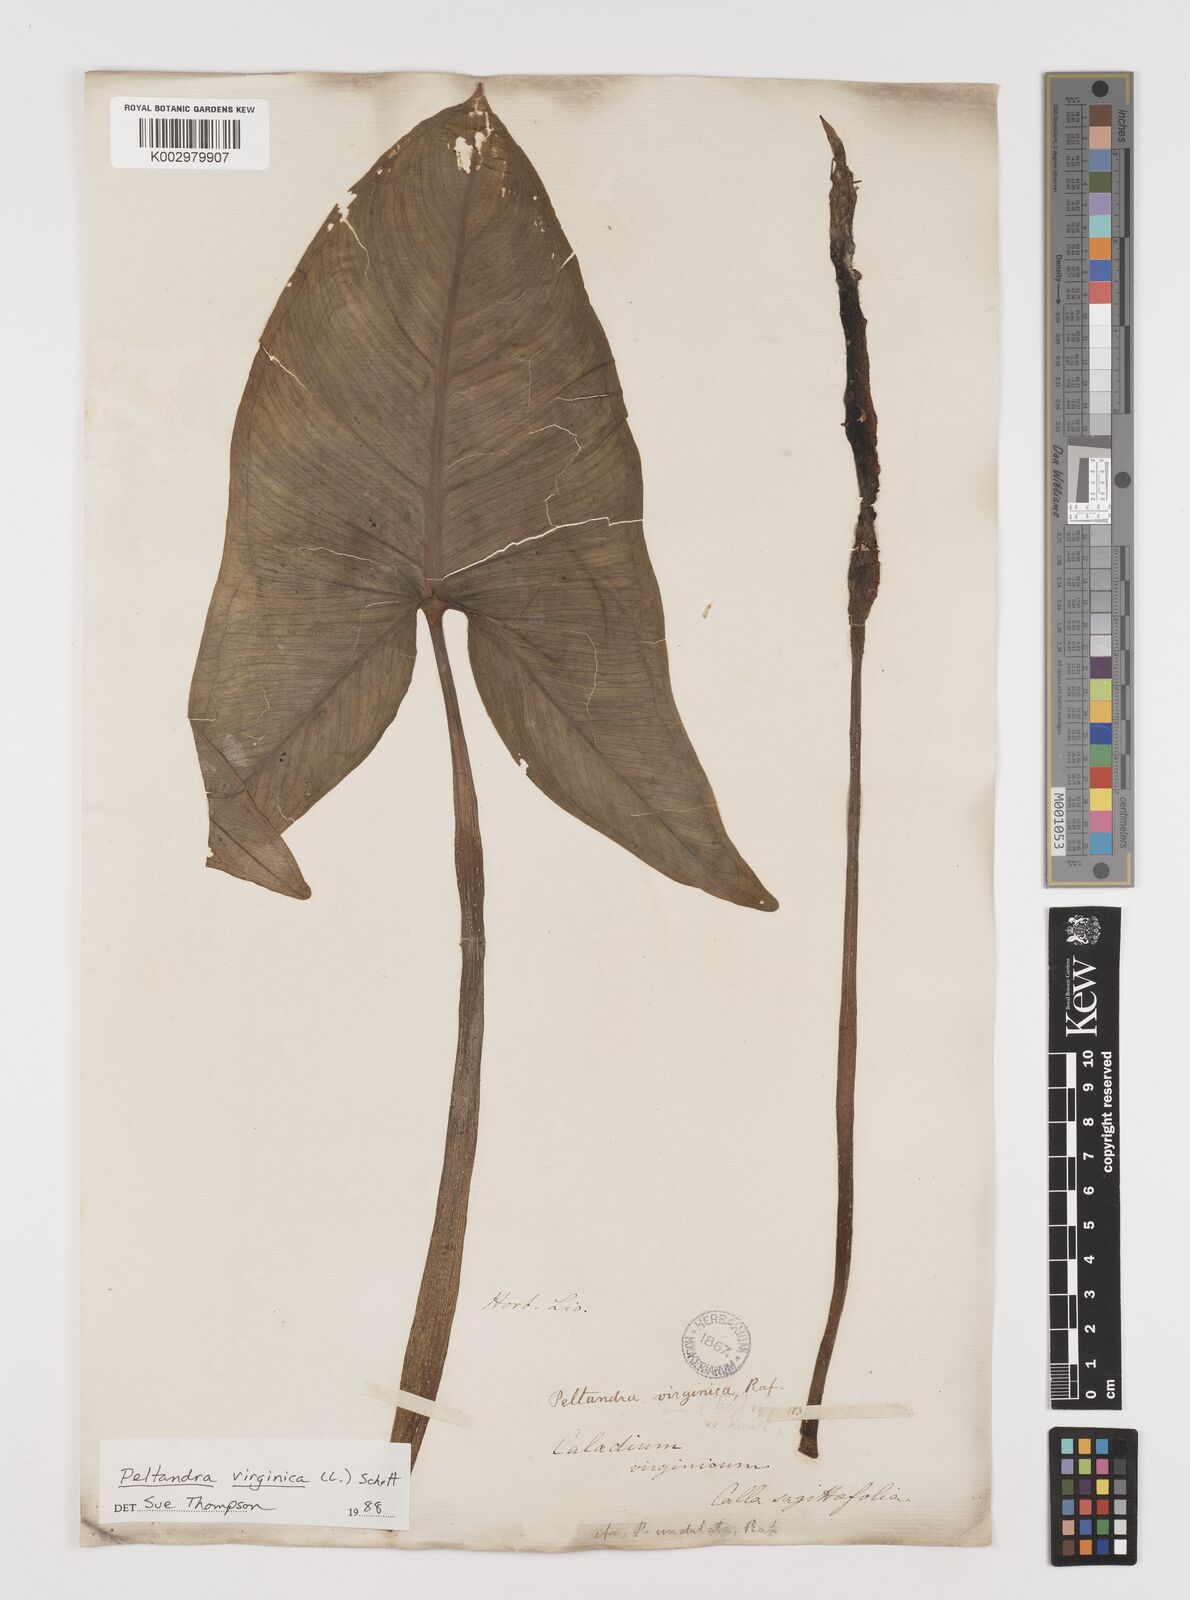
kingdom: Plantae
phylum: Tracheophyta
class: Liliopsida
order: Alismatales
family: Araceae
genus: Peltandra
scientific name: Peltandra virginica
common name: Arrow arum
